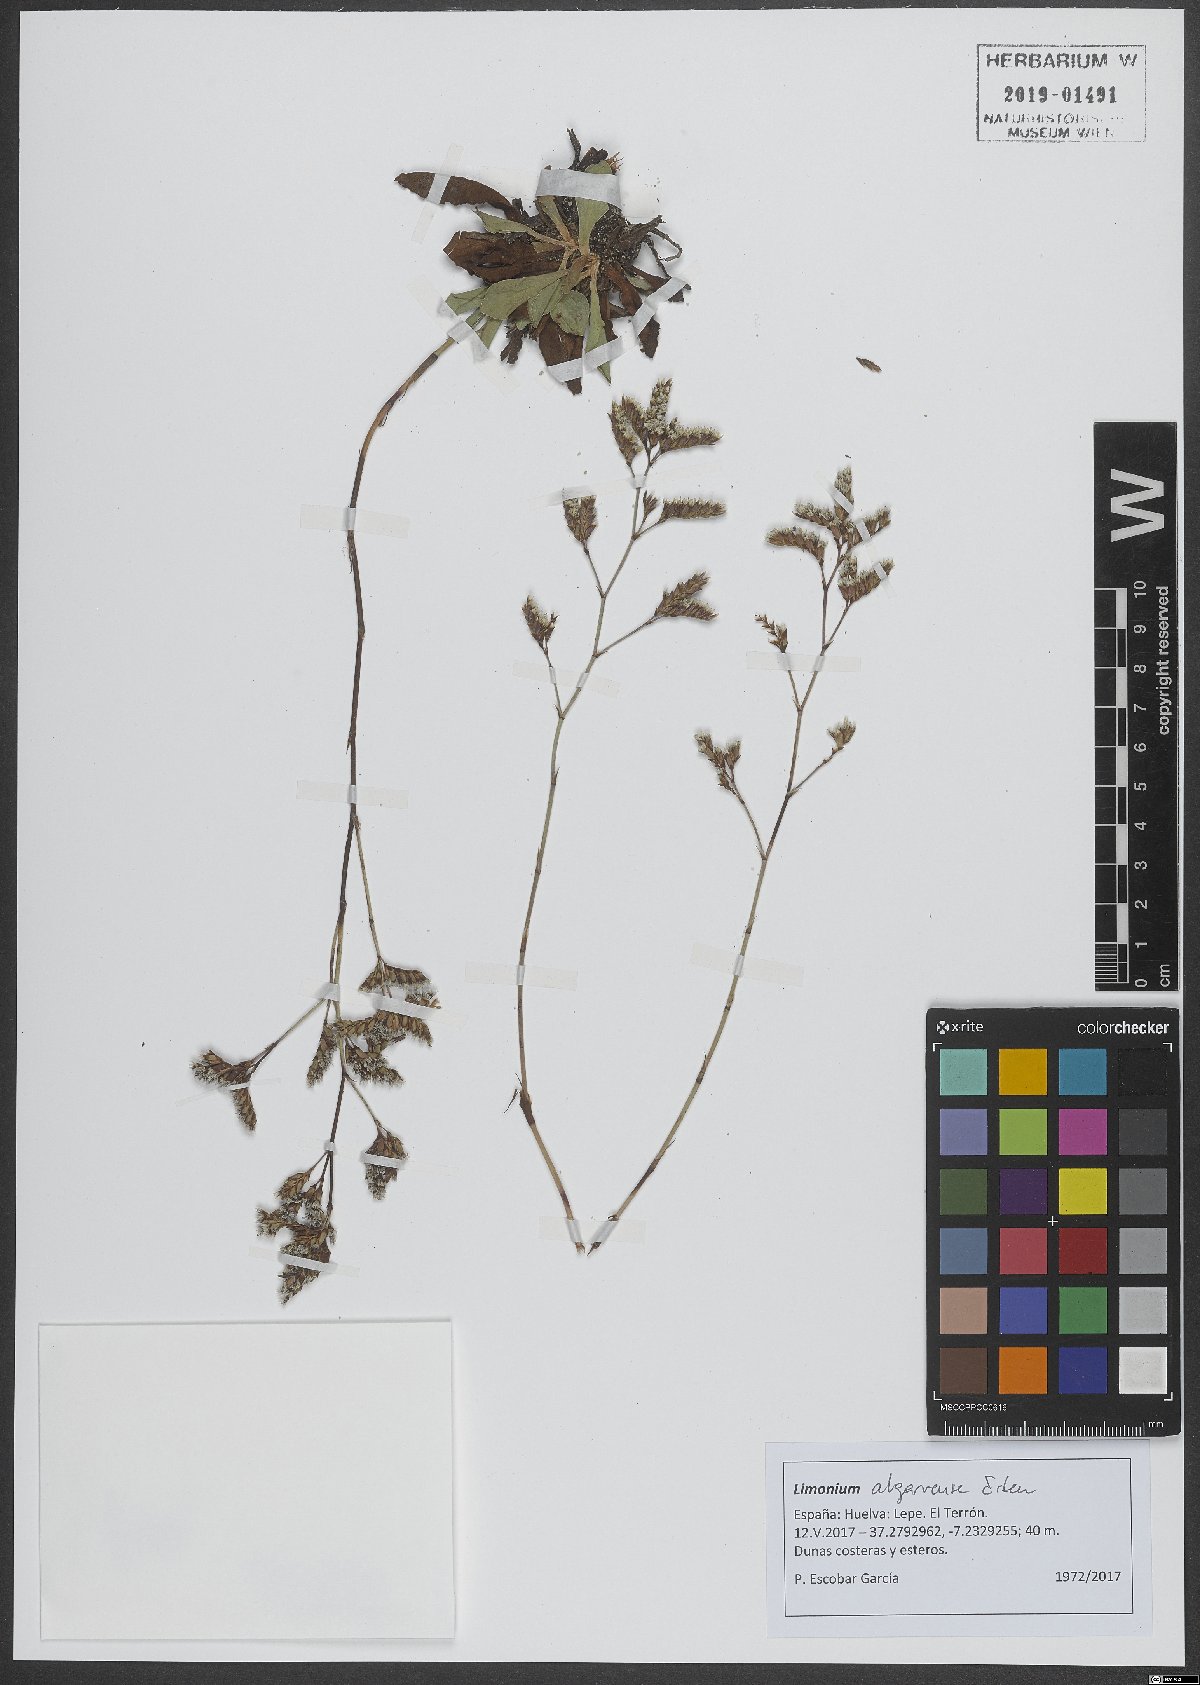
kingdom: Plantae
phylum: Tracheophyta
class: Magnoliopsida
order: Caryophyllales
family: Plumbaginaceae
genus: Limonium
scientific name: Limonium algarvense
